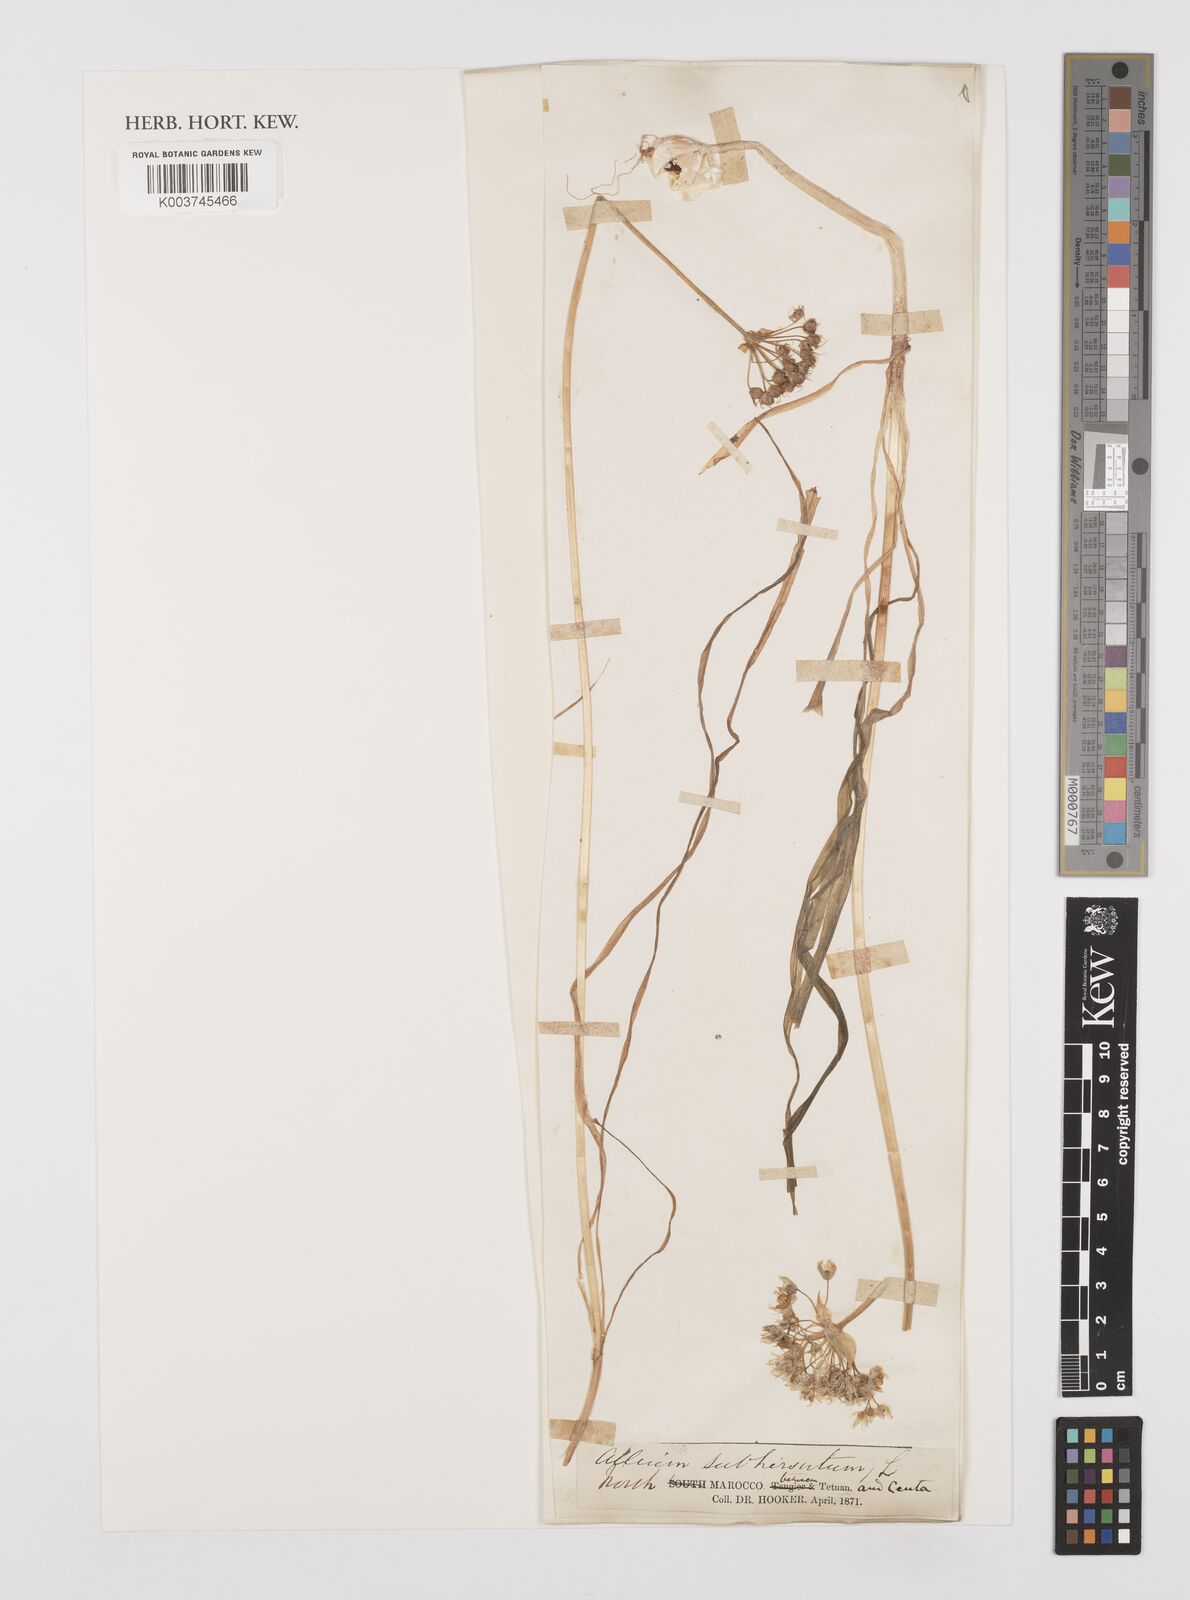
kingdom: Plantae
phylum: Tracheophyta
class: Liliopsida
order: Asparagales
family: Amaryllidaceae
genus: Allium
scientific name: Allium subhirsutum
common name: Hairy garlic
